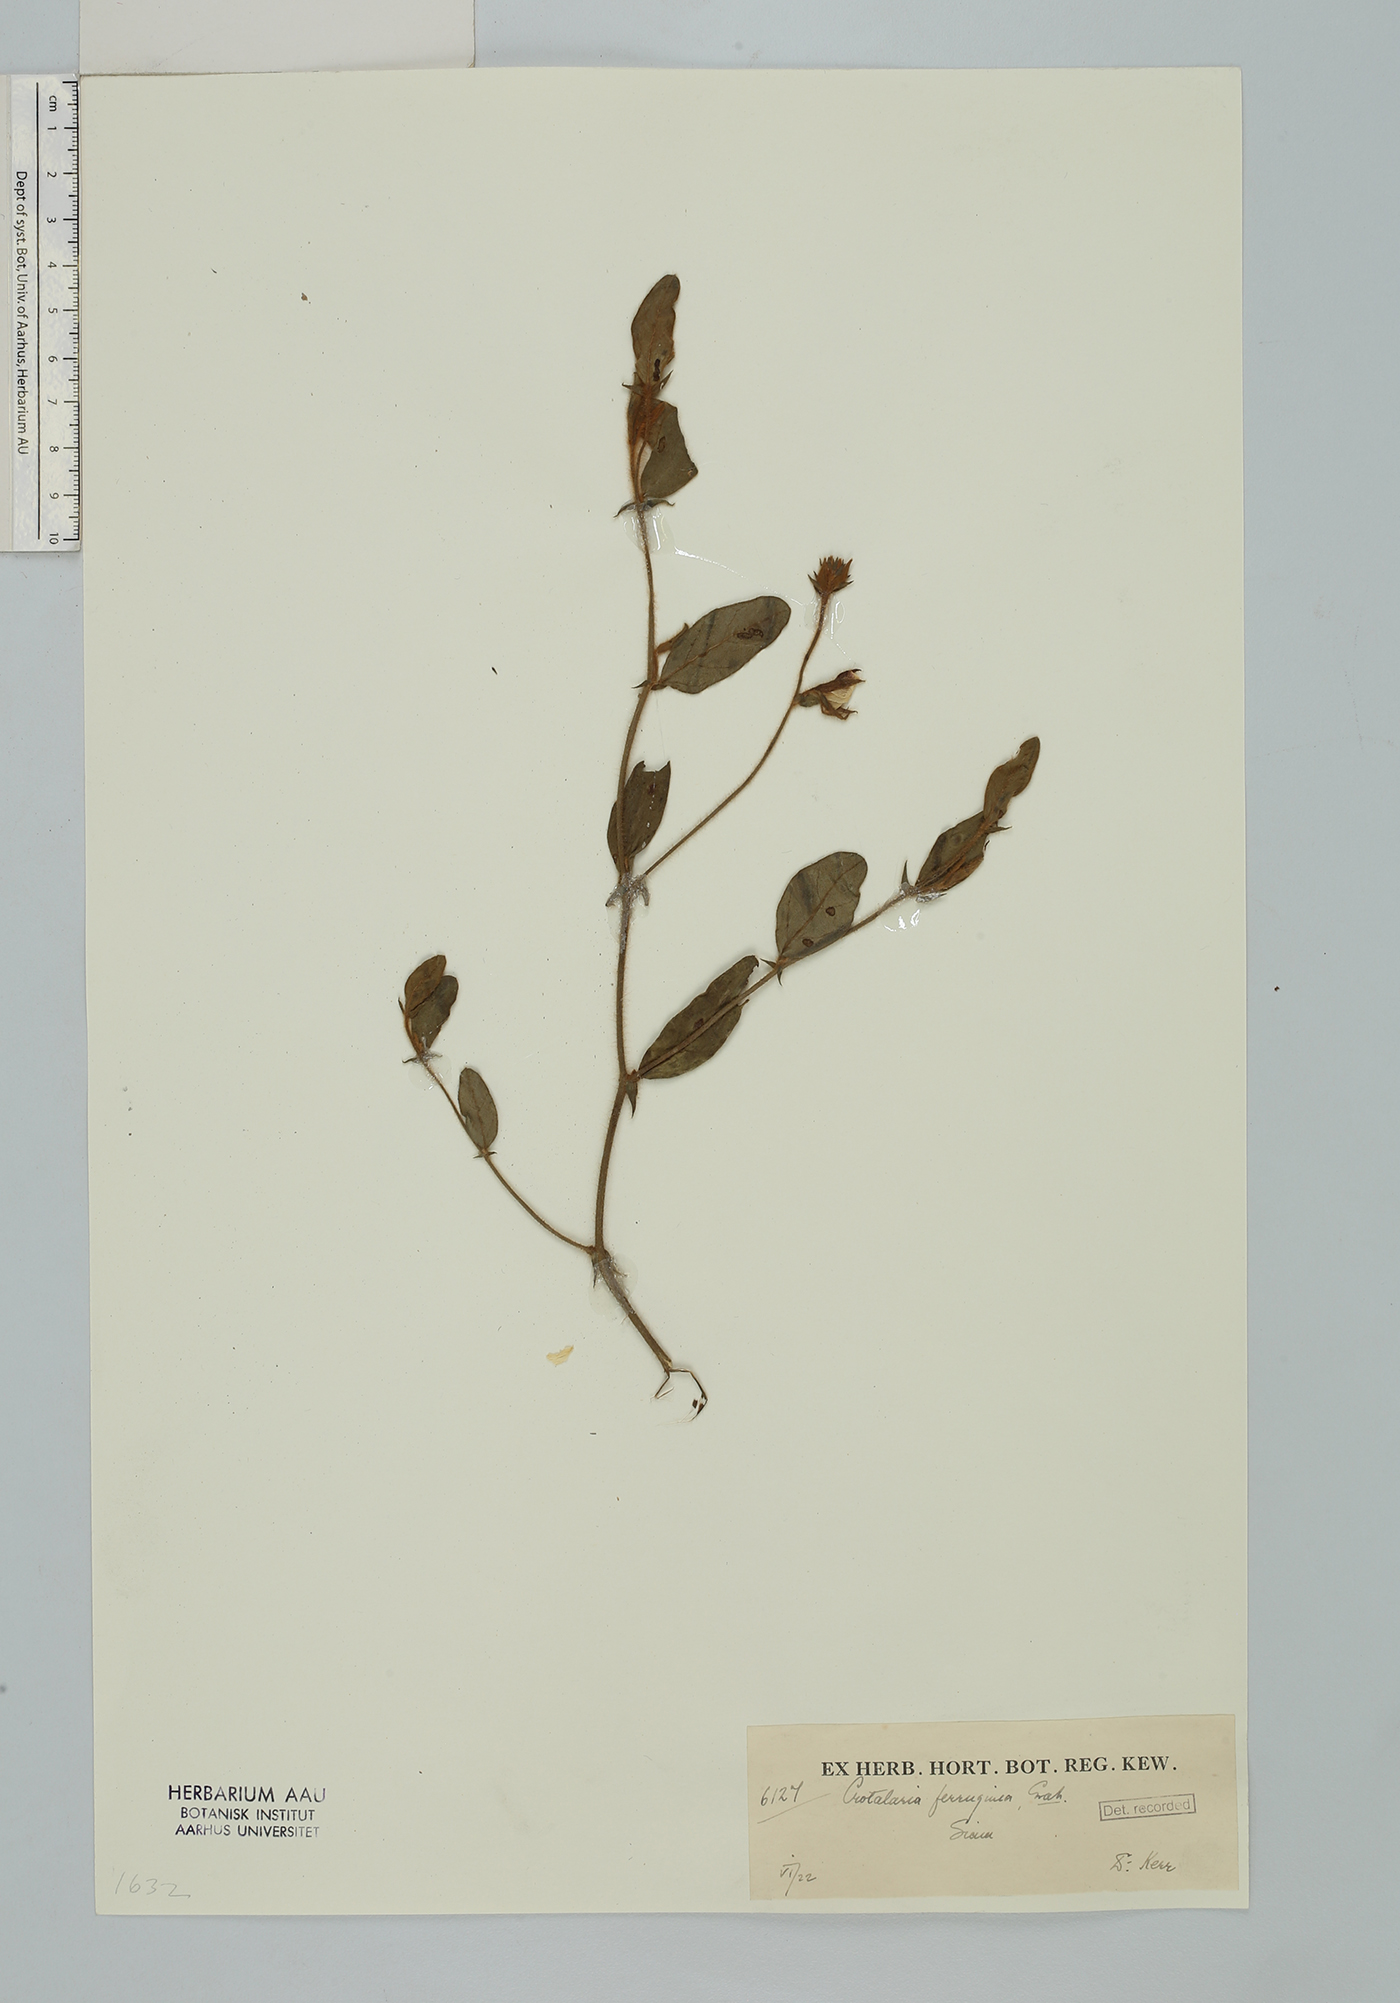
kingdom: Plantae
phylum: Tracheophyta
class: Magnoliopsida
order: Fabales
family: Fabaceae
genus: Crotalaria
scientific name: Crotalaria lejoloba
